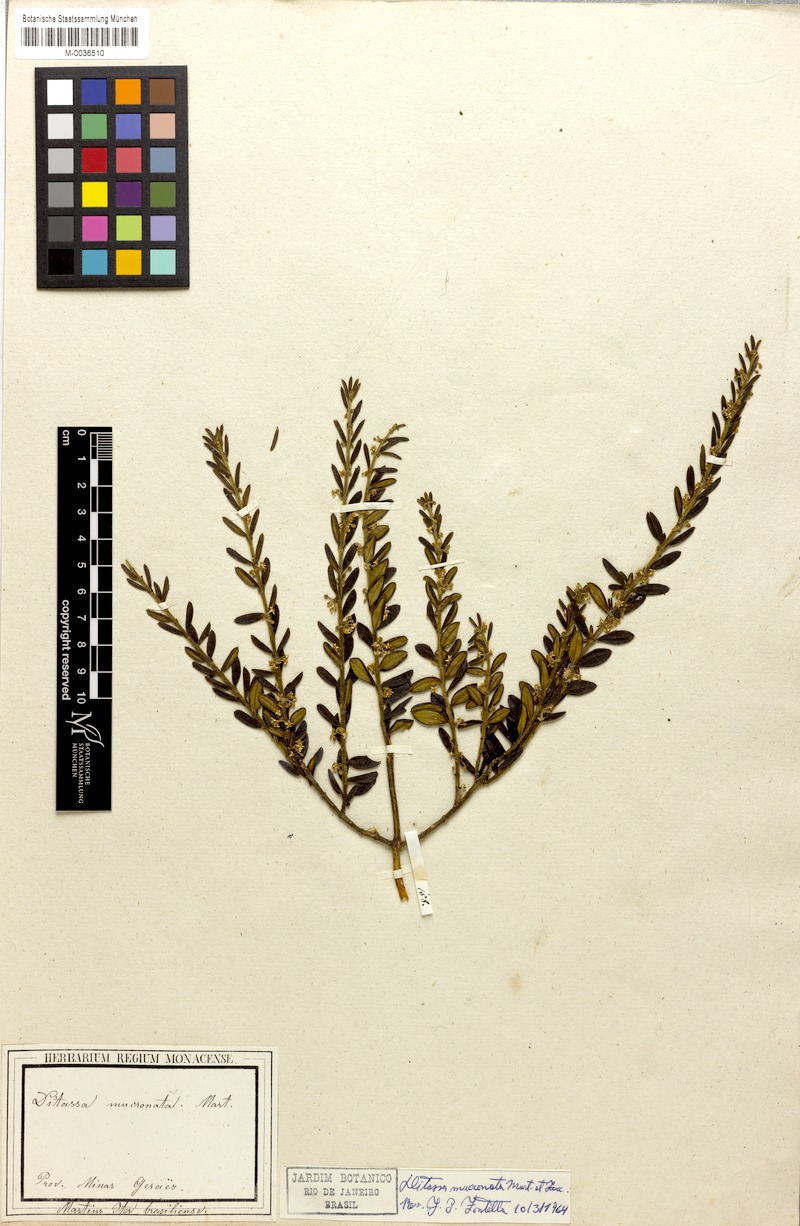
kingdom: Plantae
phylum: Tracheophyta
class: Magnoliopsida
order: Gentianales
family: Apocynaceae
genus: Ditassa
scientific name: Ditassa mucronata
